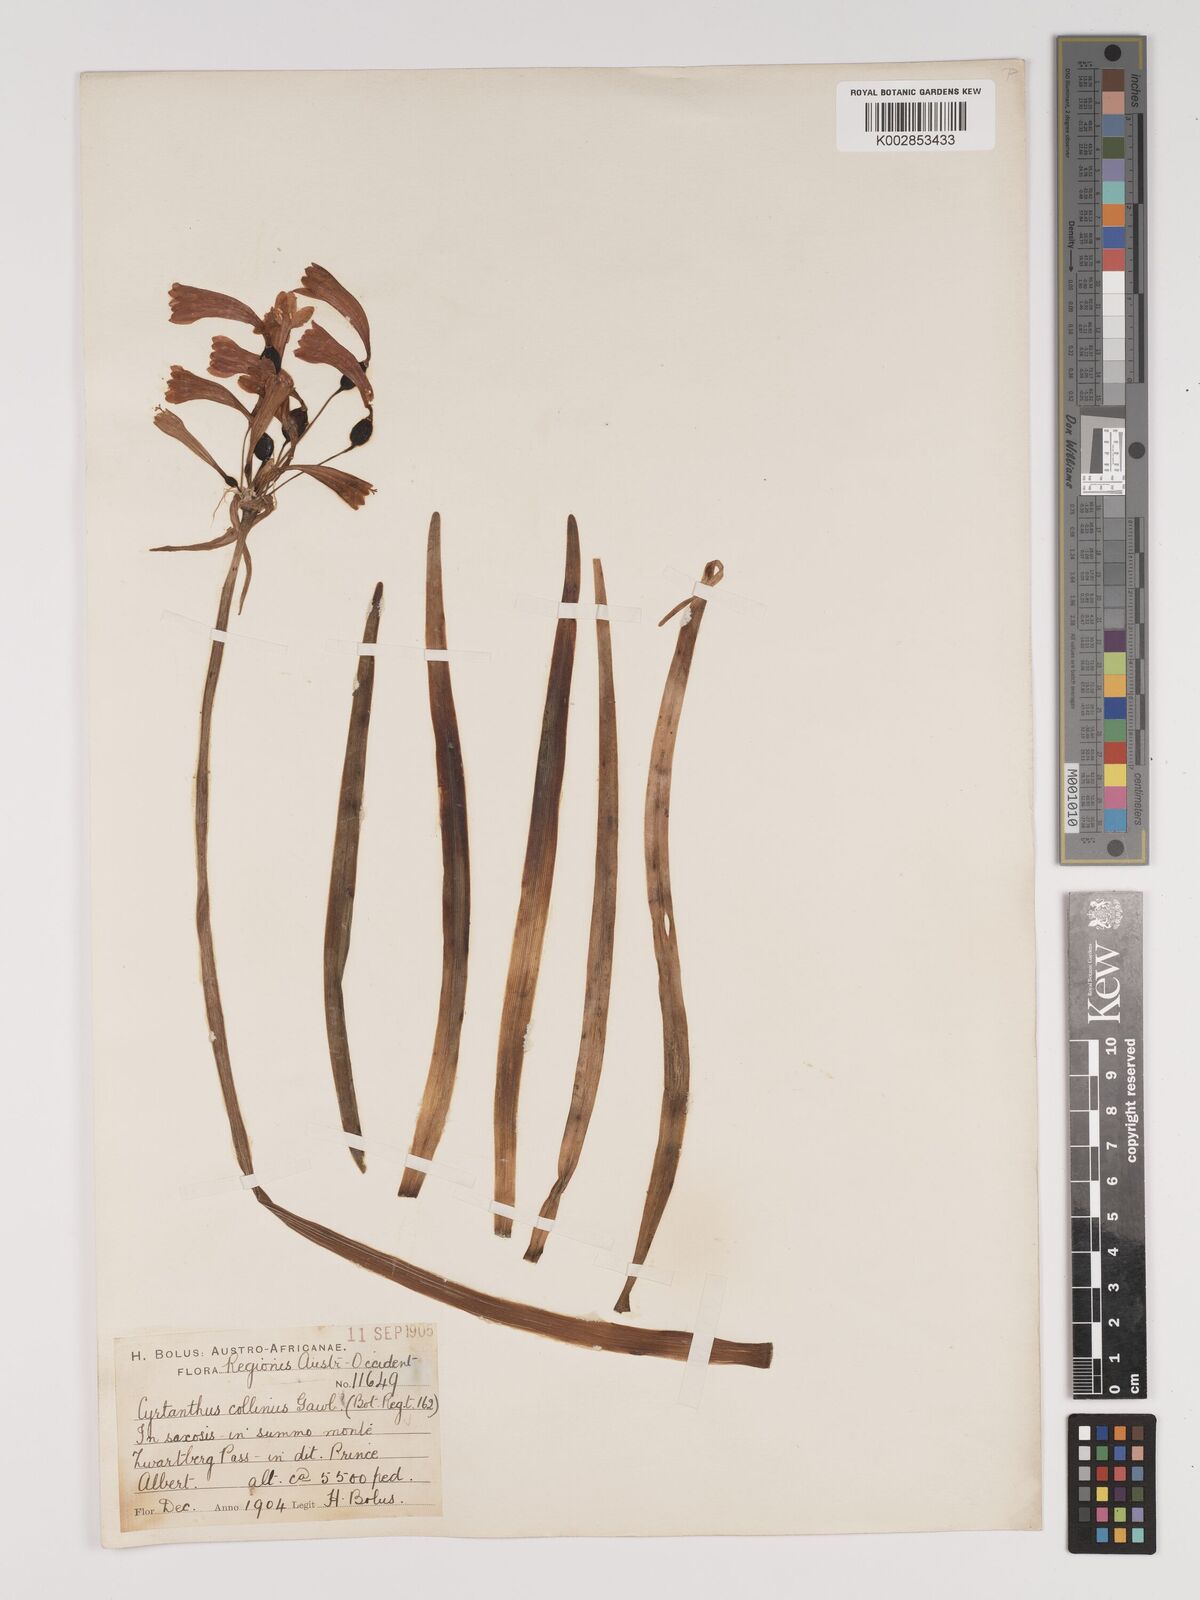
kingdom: Plantae
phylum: Tracheophyta
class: Liliopsida
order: Asparagales
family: Amaryllidaceae
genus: Cyrtanthus
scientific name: Cyrtanthus collinus
